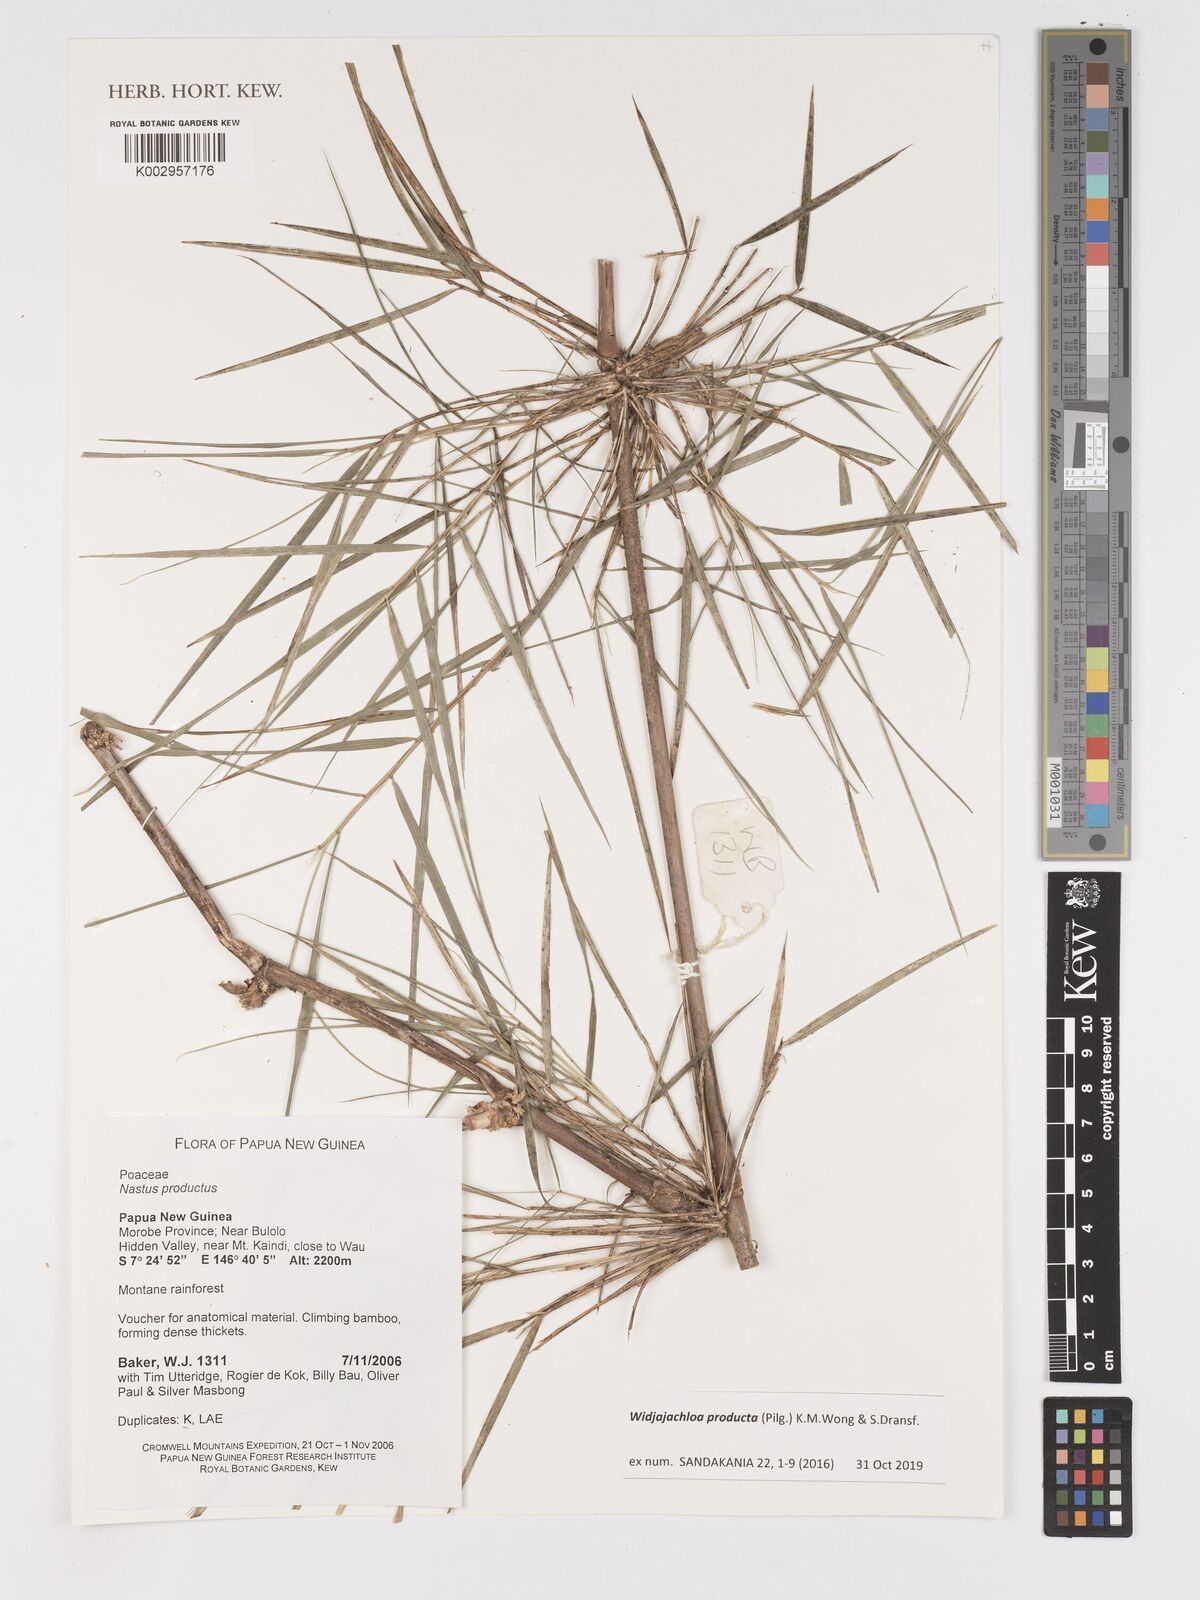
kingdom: Plantae
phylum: Tracheophyta
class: Liliopsida
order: Poales
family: Poaceae
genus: Widjajachloa
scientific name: Widjajachloa producta
